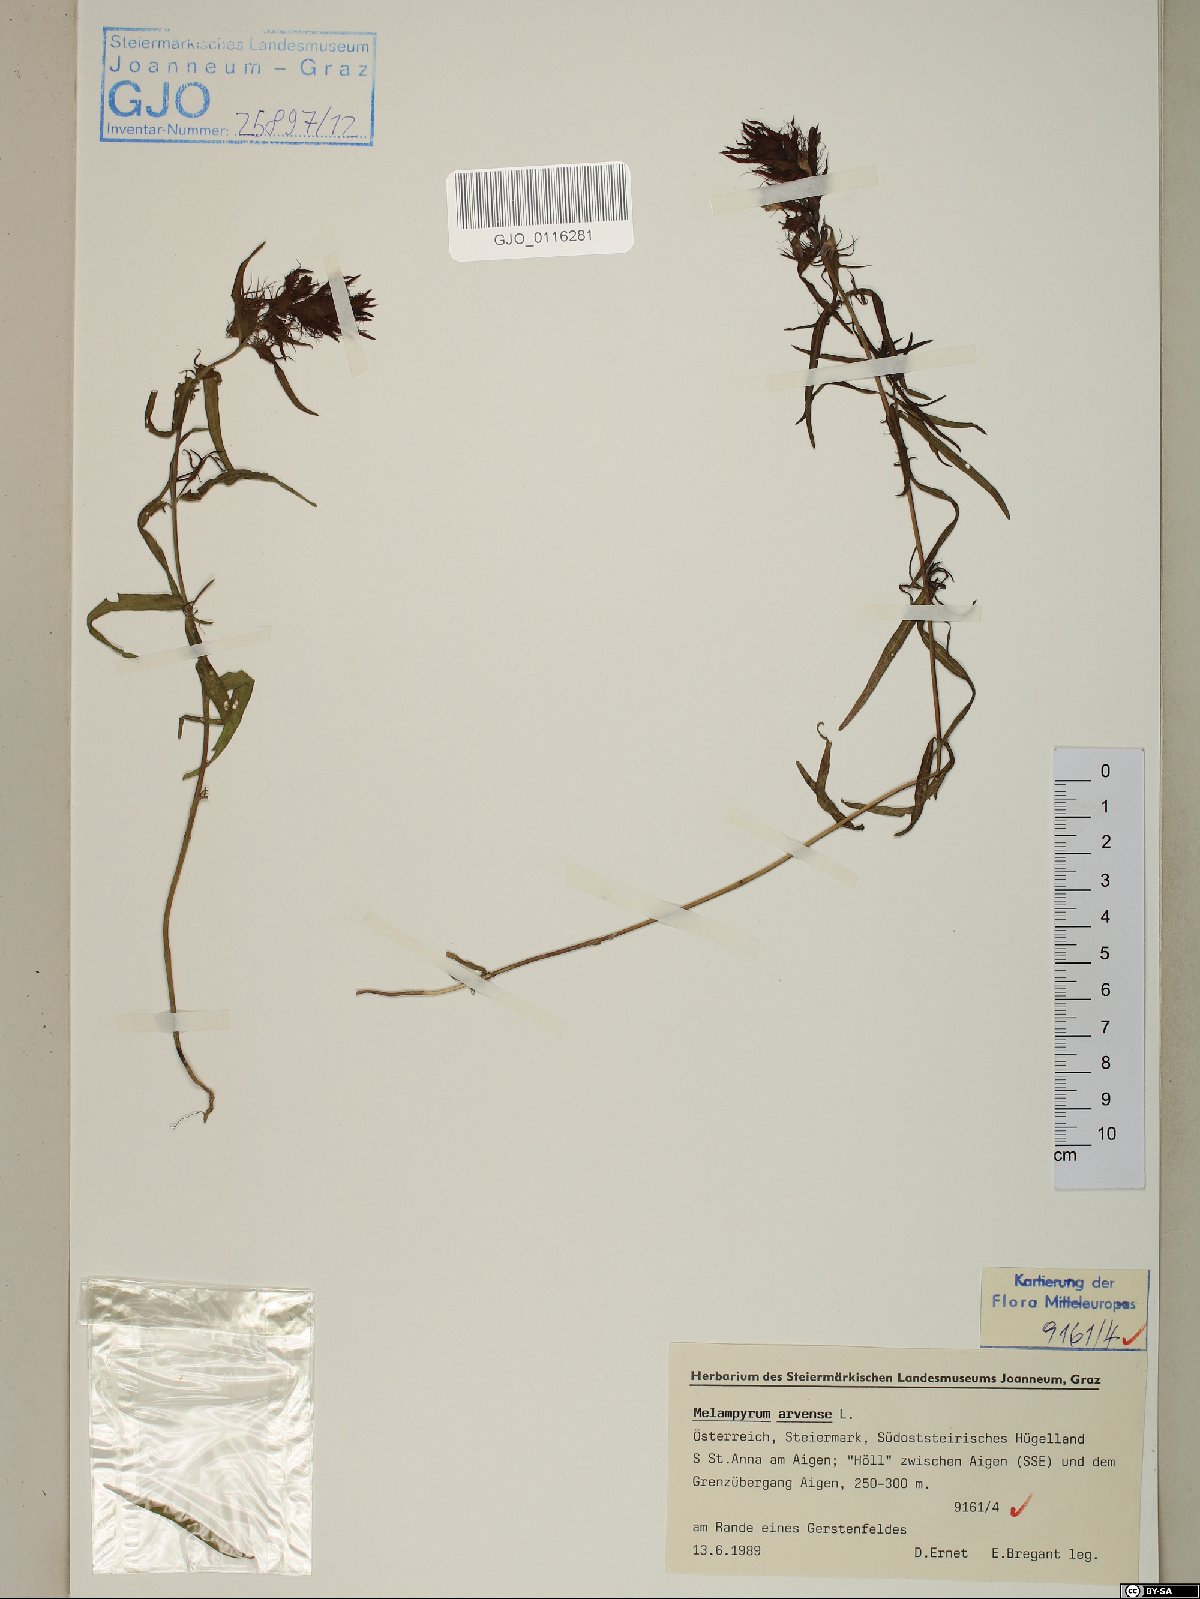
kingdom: Plantae
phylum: Tracheophyta
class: Magnoliopsida
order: Lamiales
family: Orobanchaceae
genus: Melampyrum
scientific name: Melampyrum arvense
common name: Field cow-wheat
